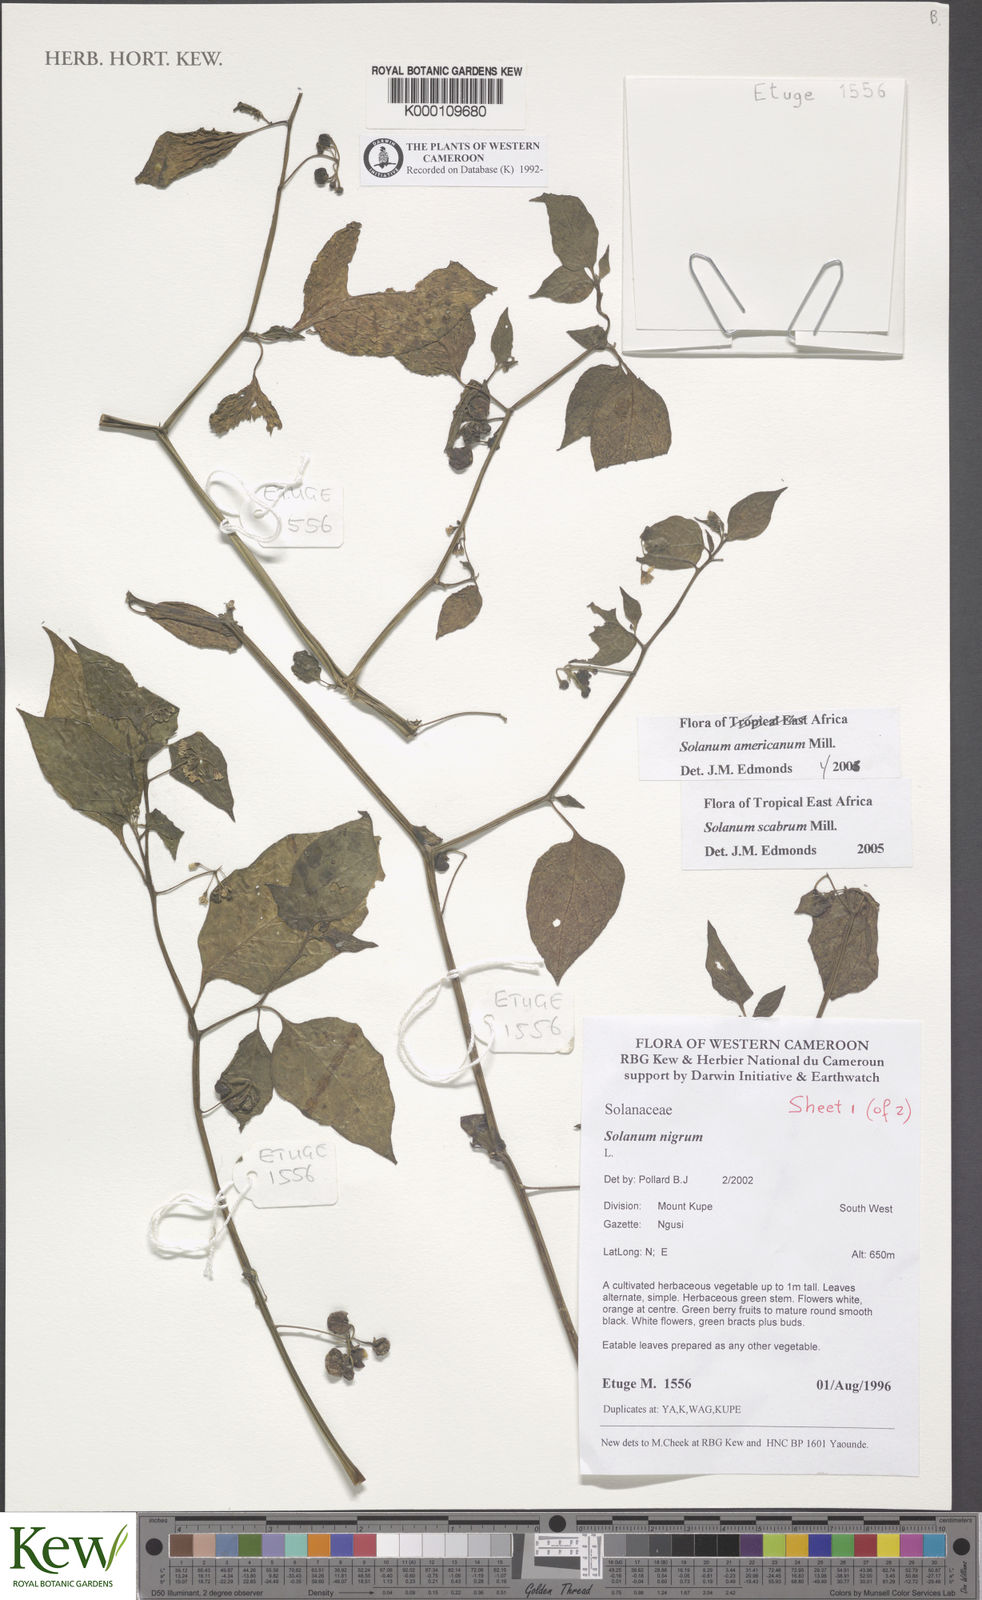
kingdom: Plantae
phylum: Tracheophyta
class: Magnoliopsida
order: Solanales
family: Solanaceae
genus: Solanum
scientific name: Solanum americanum
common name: American black nightshade
